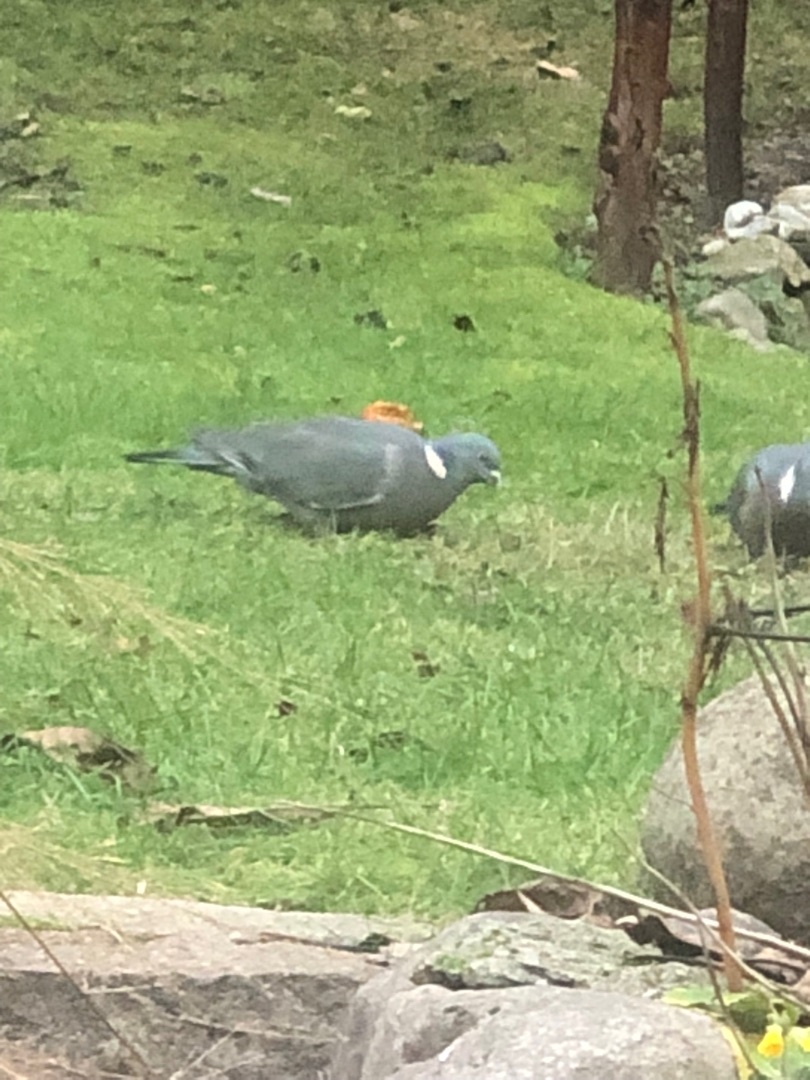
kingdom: Animalia
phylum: Chordata
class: Aves
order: Columbiformes
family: Columbidae
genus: Columba
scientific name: Columba palumbus
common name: Ringdue
